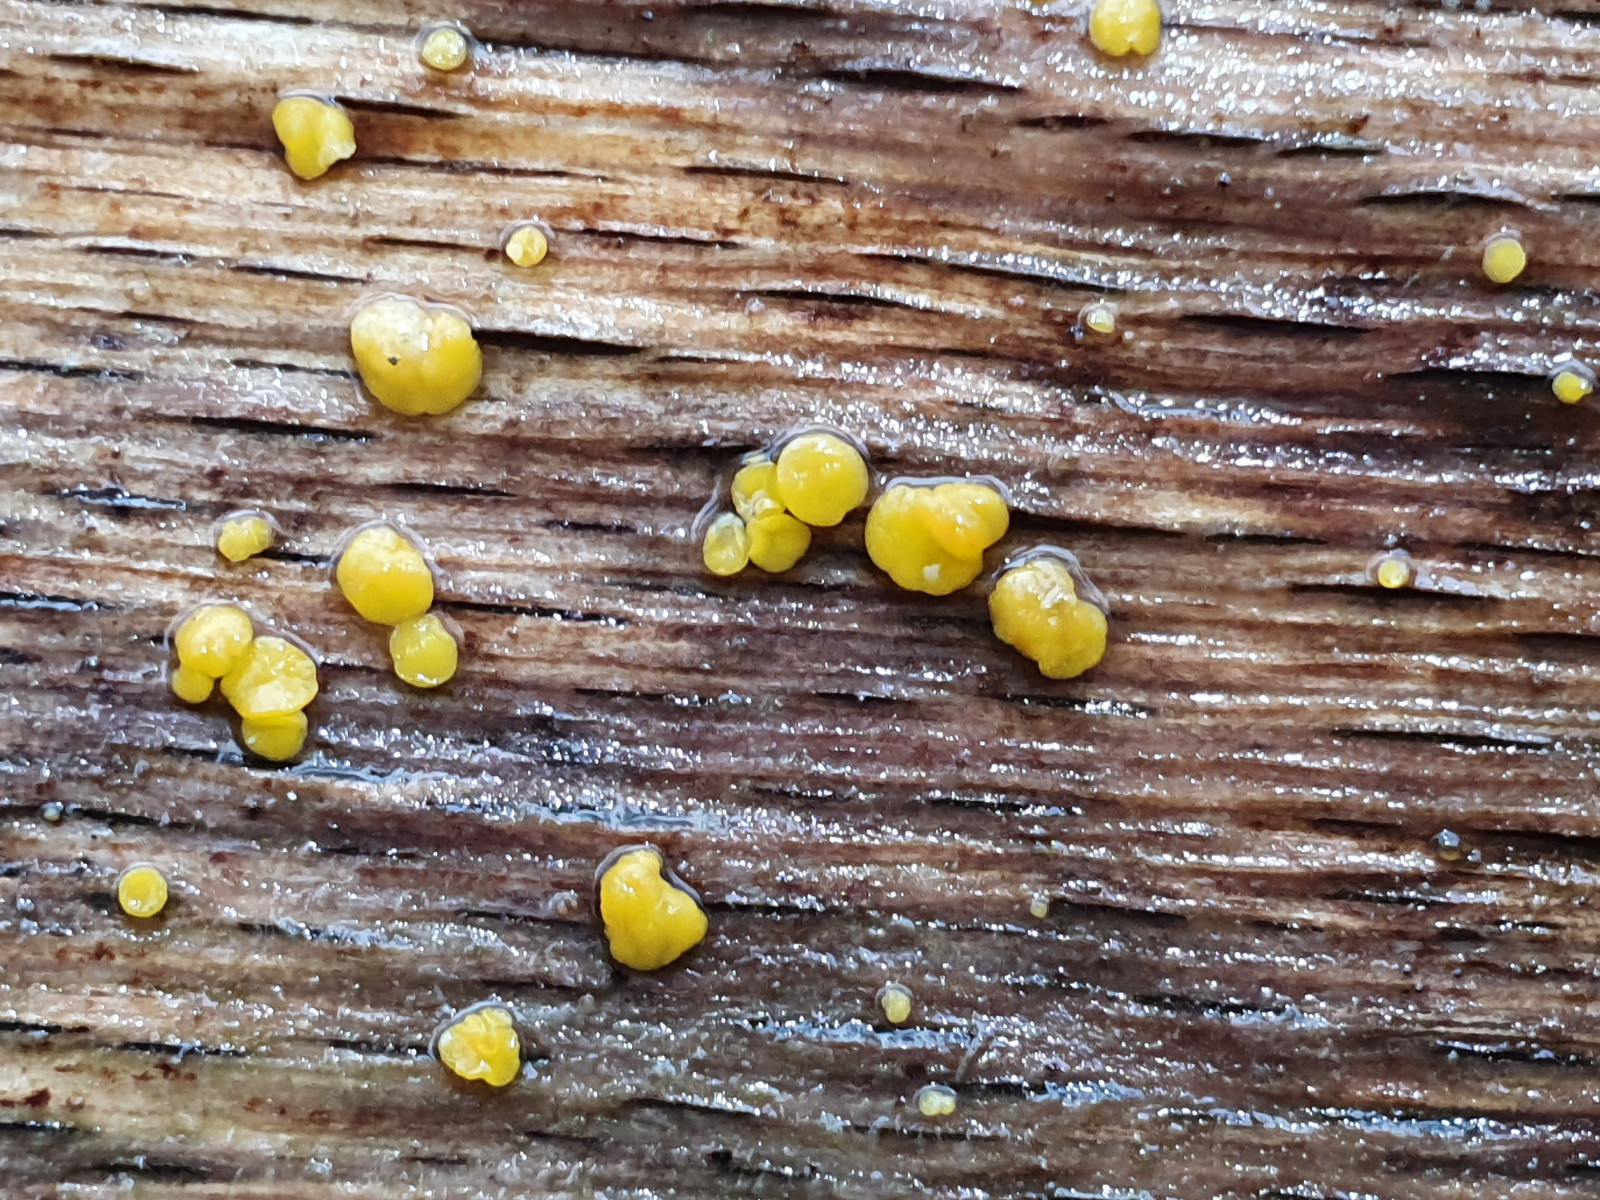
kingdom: Fungi
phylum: Ascomycota
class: Leotiomycetes
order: Helotiales
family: Pezizellaceae
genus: Calycina
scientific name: Calycina citrina
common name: almindelig gulskive
